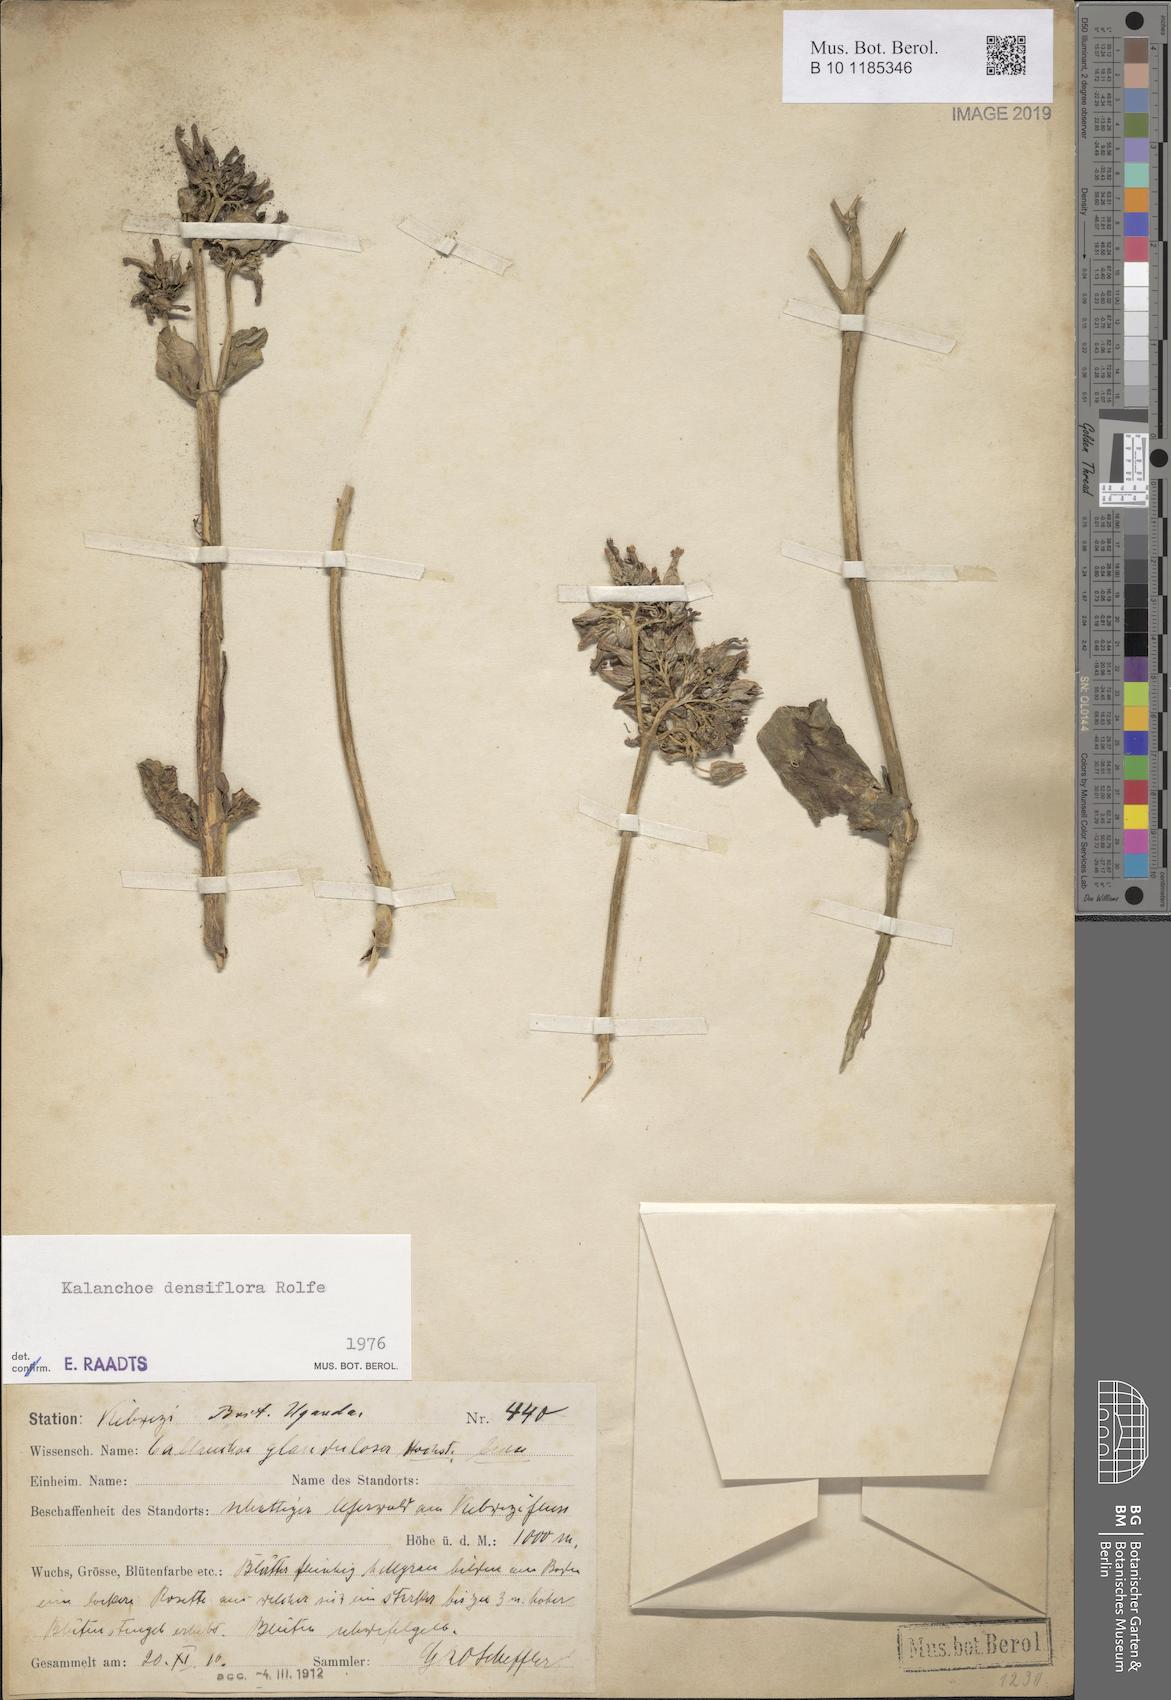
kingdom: Plantae
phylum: Tracheophyta
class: Magnoliopsida
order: Saxifragales
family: Crassulaceae
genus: Kalanchoe
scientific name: Kalanchoe densiflora
